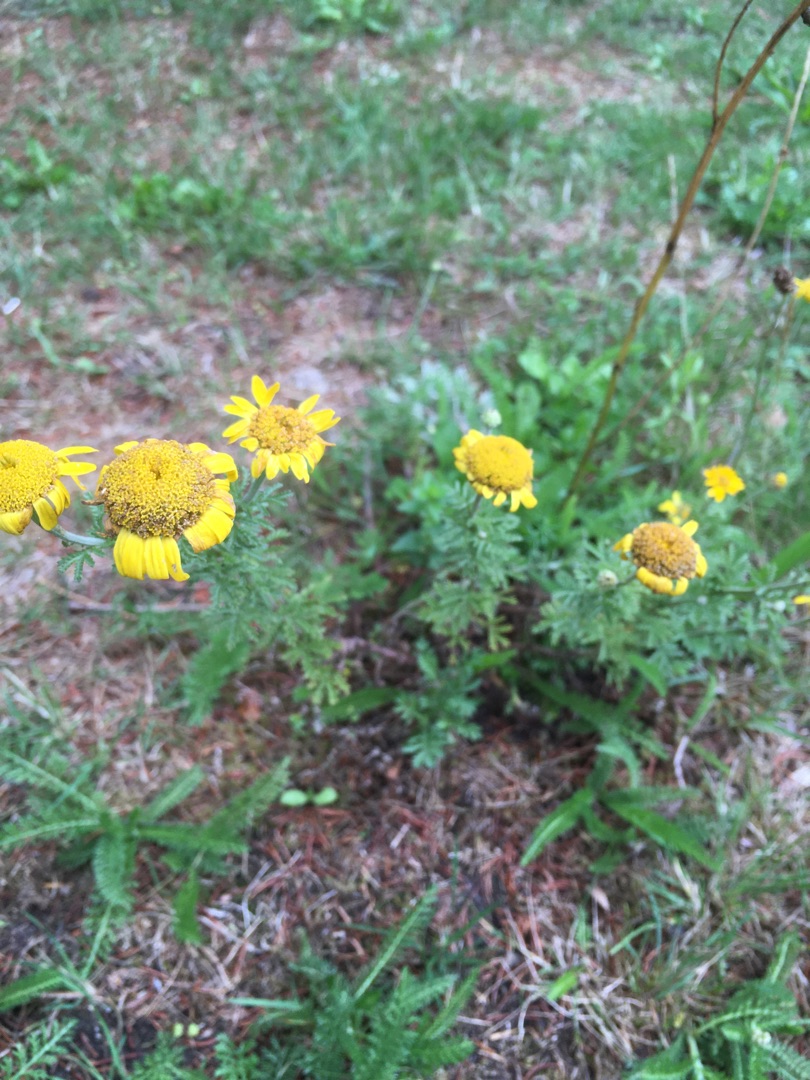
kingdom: Plantae
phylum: Tracheophyta
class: Magnoliopsida
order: Asterales
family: Asteraceae
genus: Cota
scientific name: Cota tinctoria
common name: Farve-gåseurt
